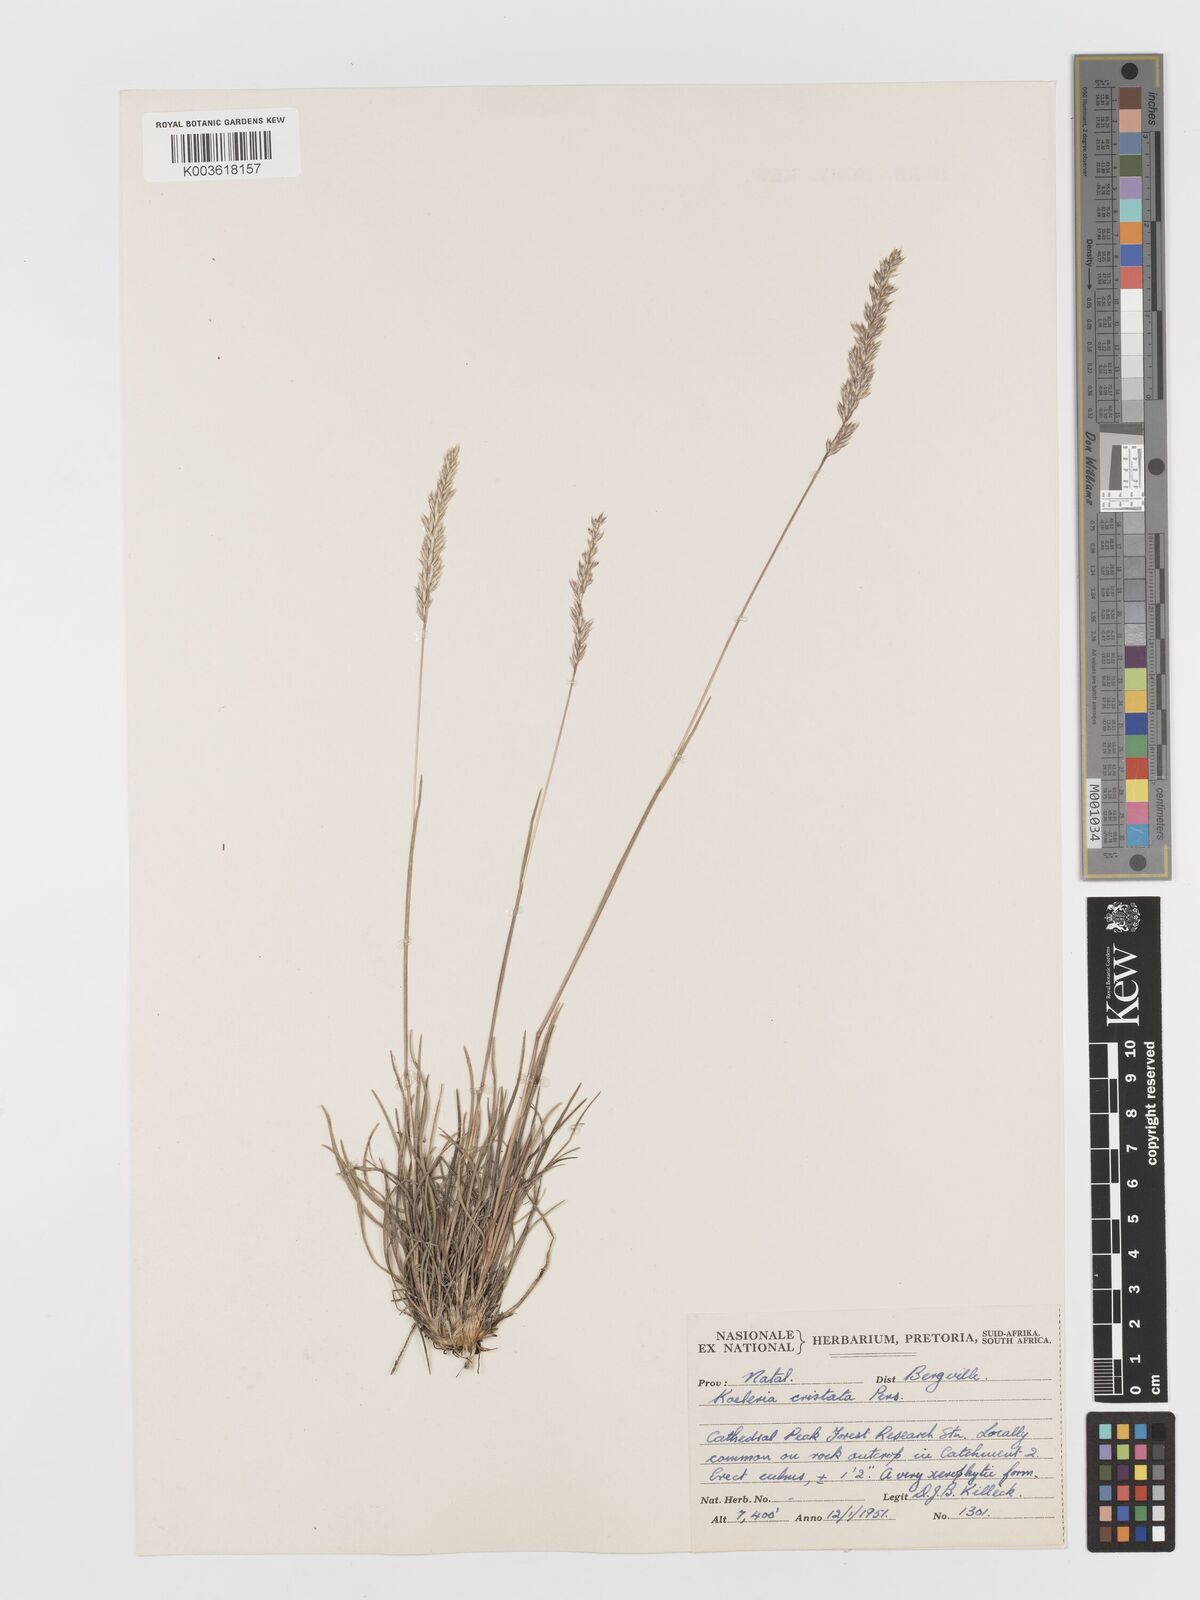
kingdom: Plantae
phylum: Tracheophyta
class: Liliopsida
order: Poales
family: Poaceae
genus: Koeleria
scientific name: Koeleria capensis
